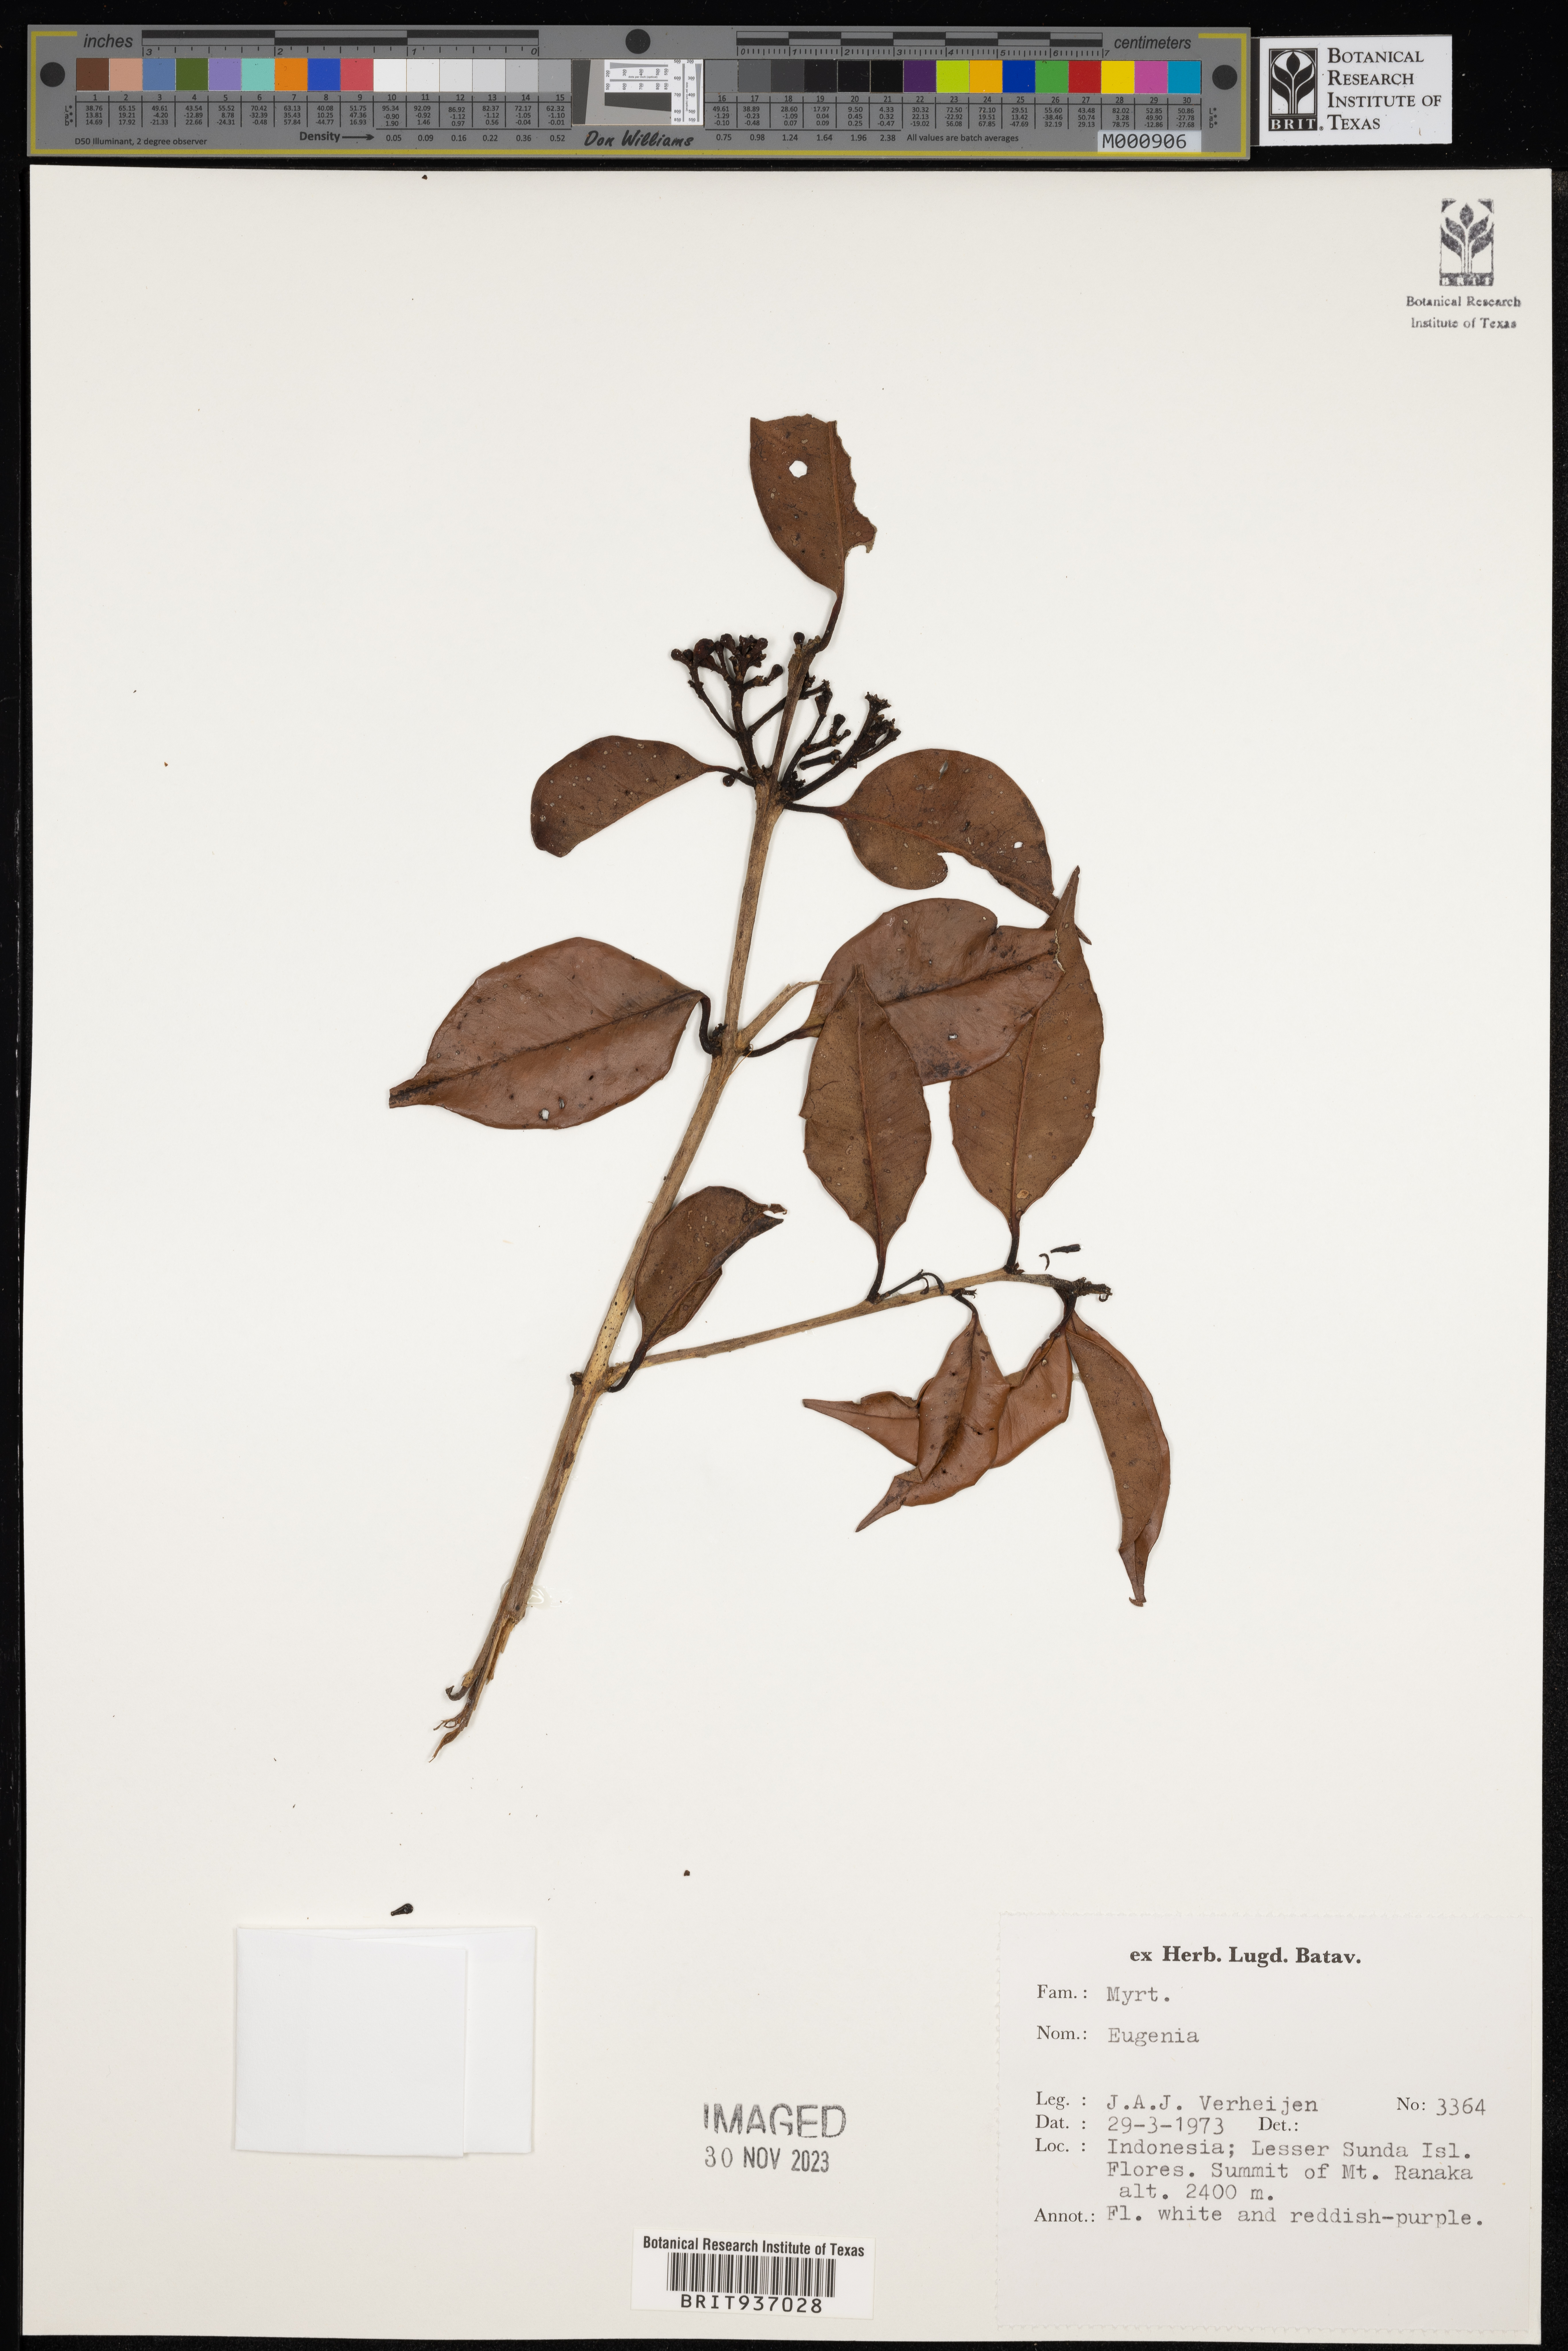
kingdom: Plantae
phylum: Tracheophyta
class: Magnoliopsida
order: Myrtales
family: Myrtaceae
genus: Eugenia
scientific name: Eugenia
